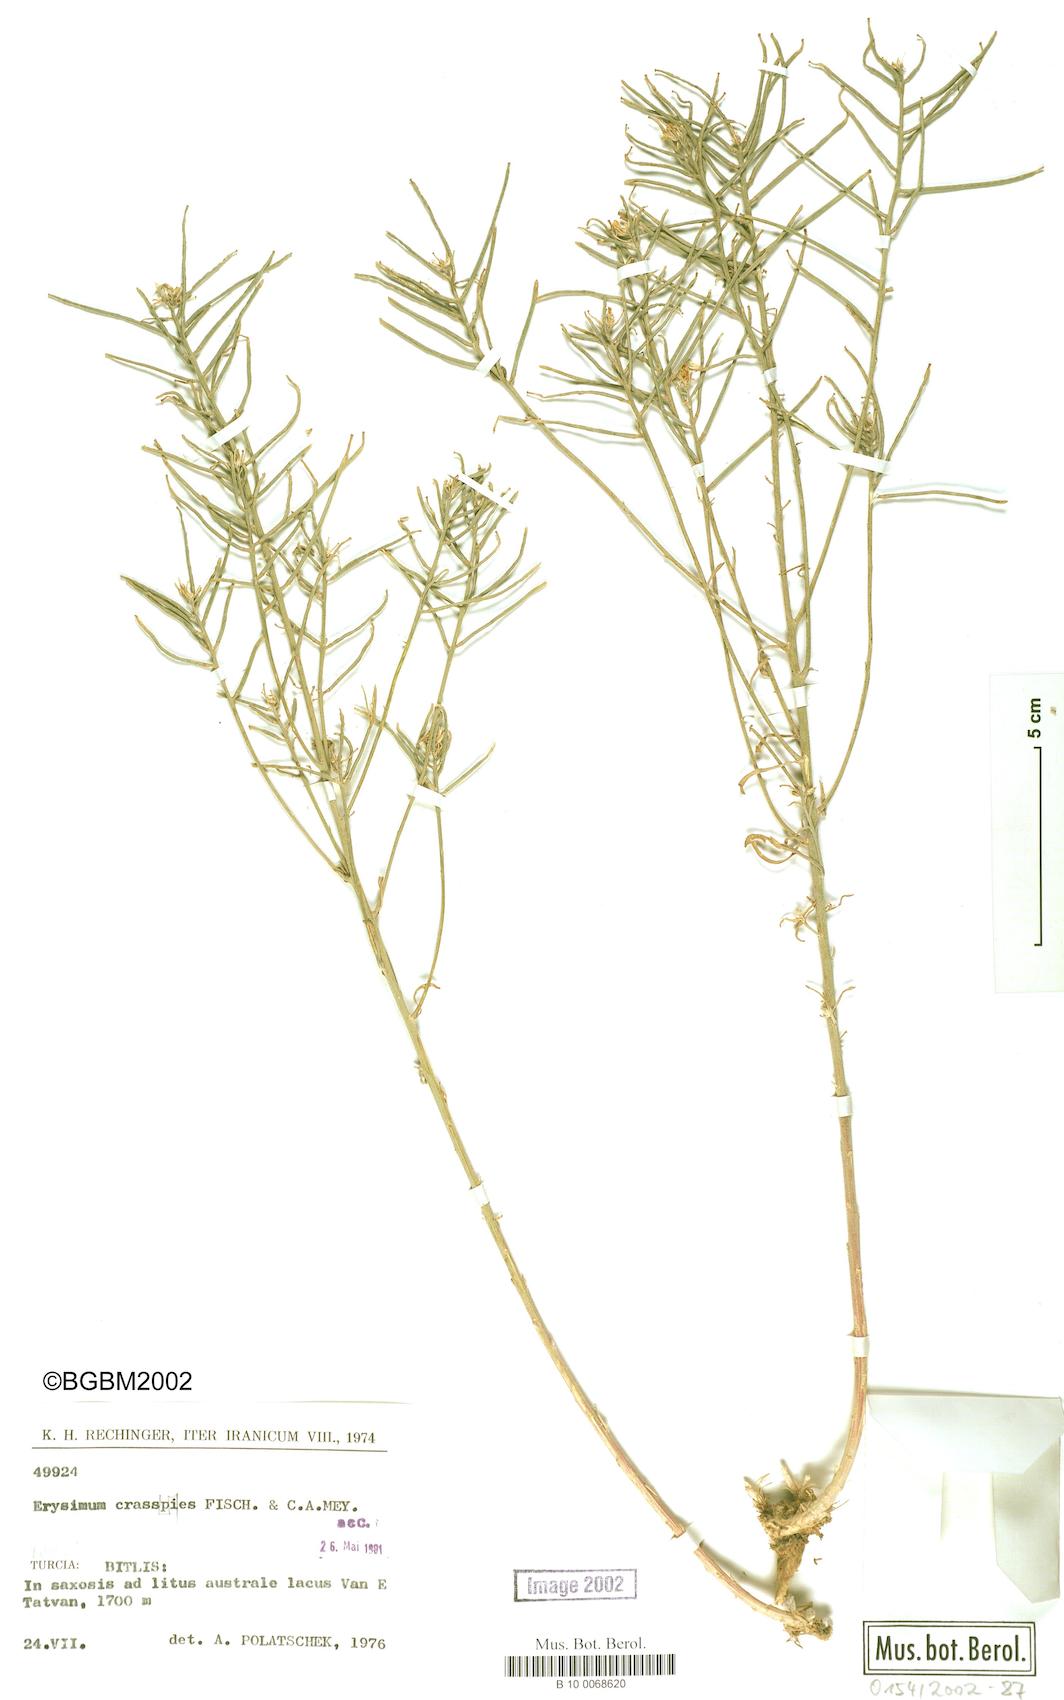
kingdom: Plantae
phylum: Tracheophyta
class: Magnoliopsida
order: Brassicales
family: Brassicaceae
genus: Erysimum
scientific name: Erysimum crassipes
